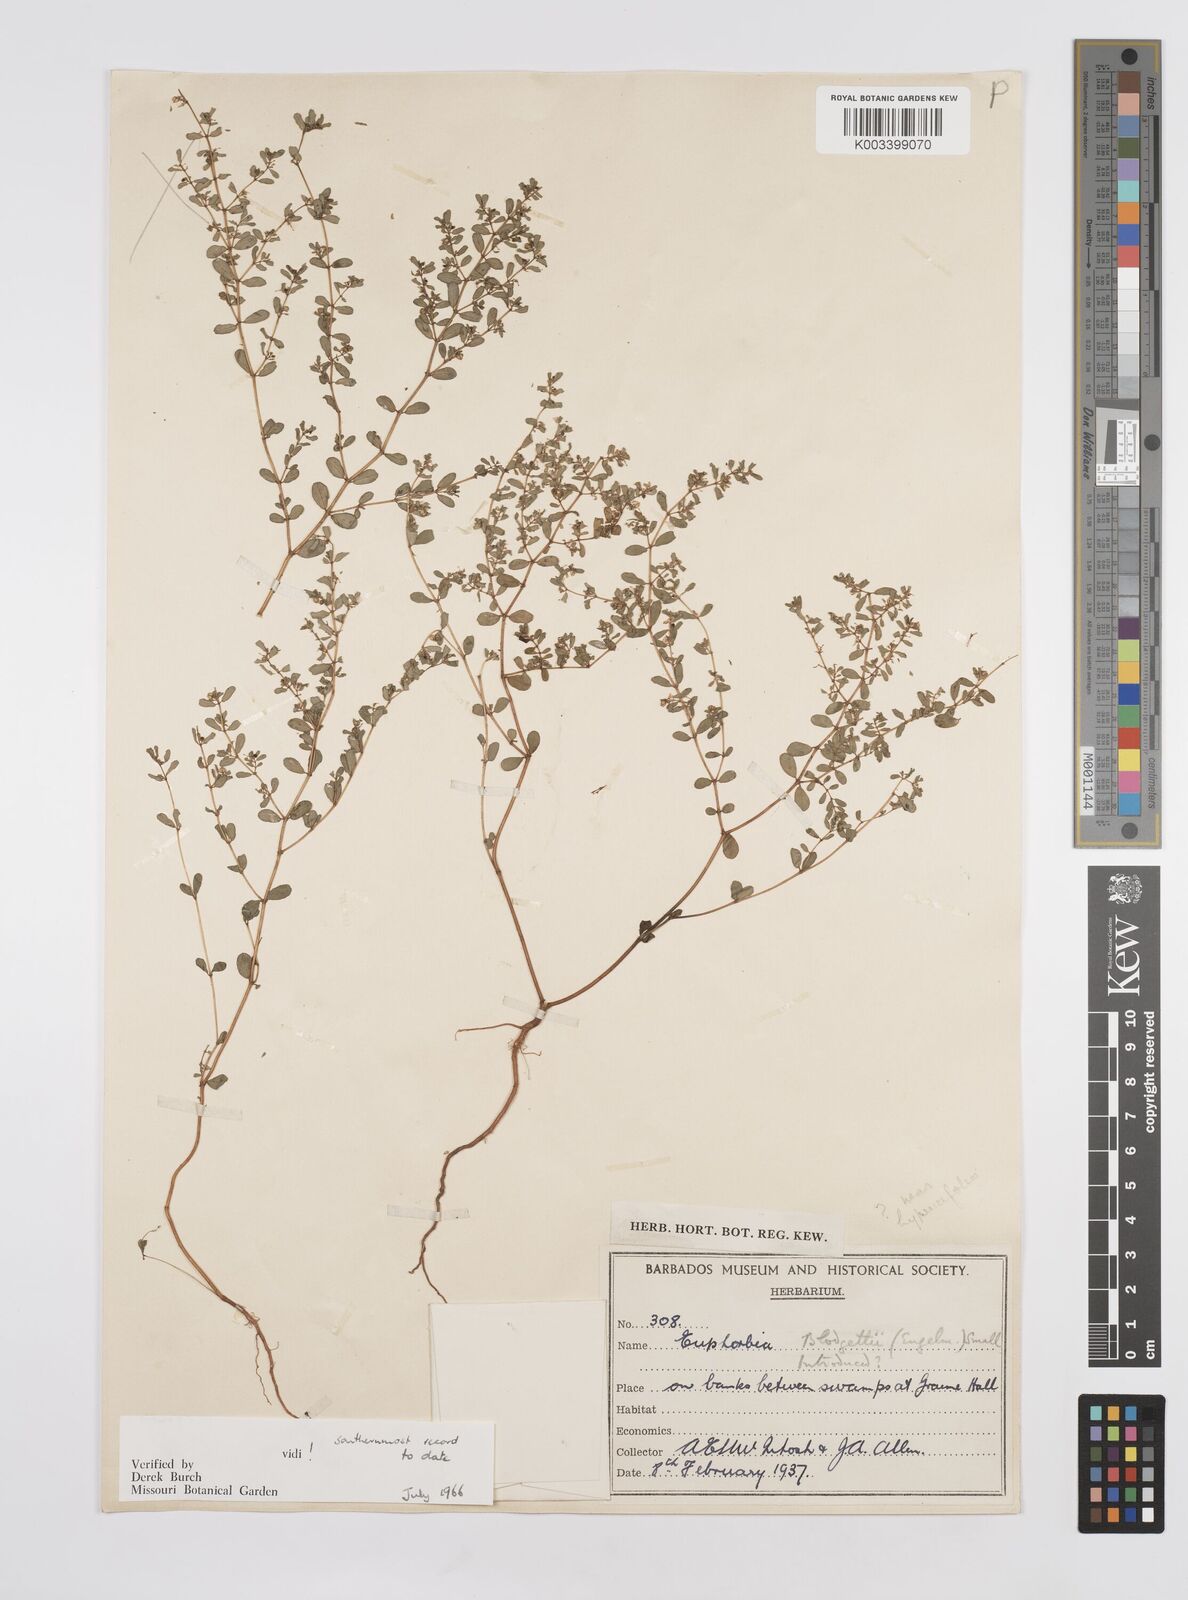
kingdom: Plantae
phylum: Tracheophyta
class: Magnoliopsida
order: Malpighiales
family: Euphorbiaceae
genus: Euphorbia
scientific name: Euphorbia blodgettii
